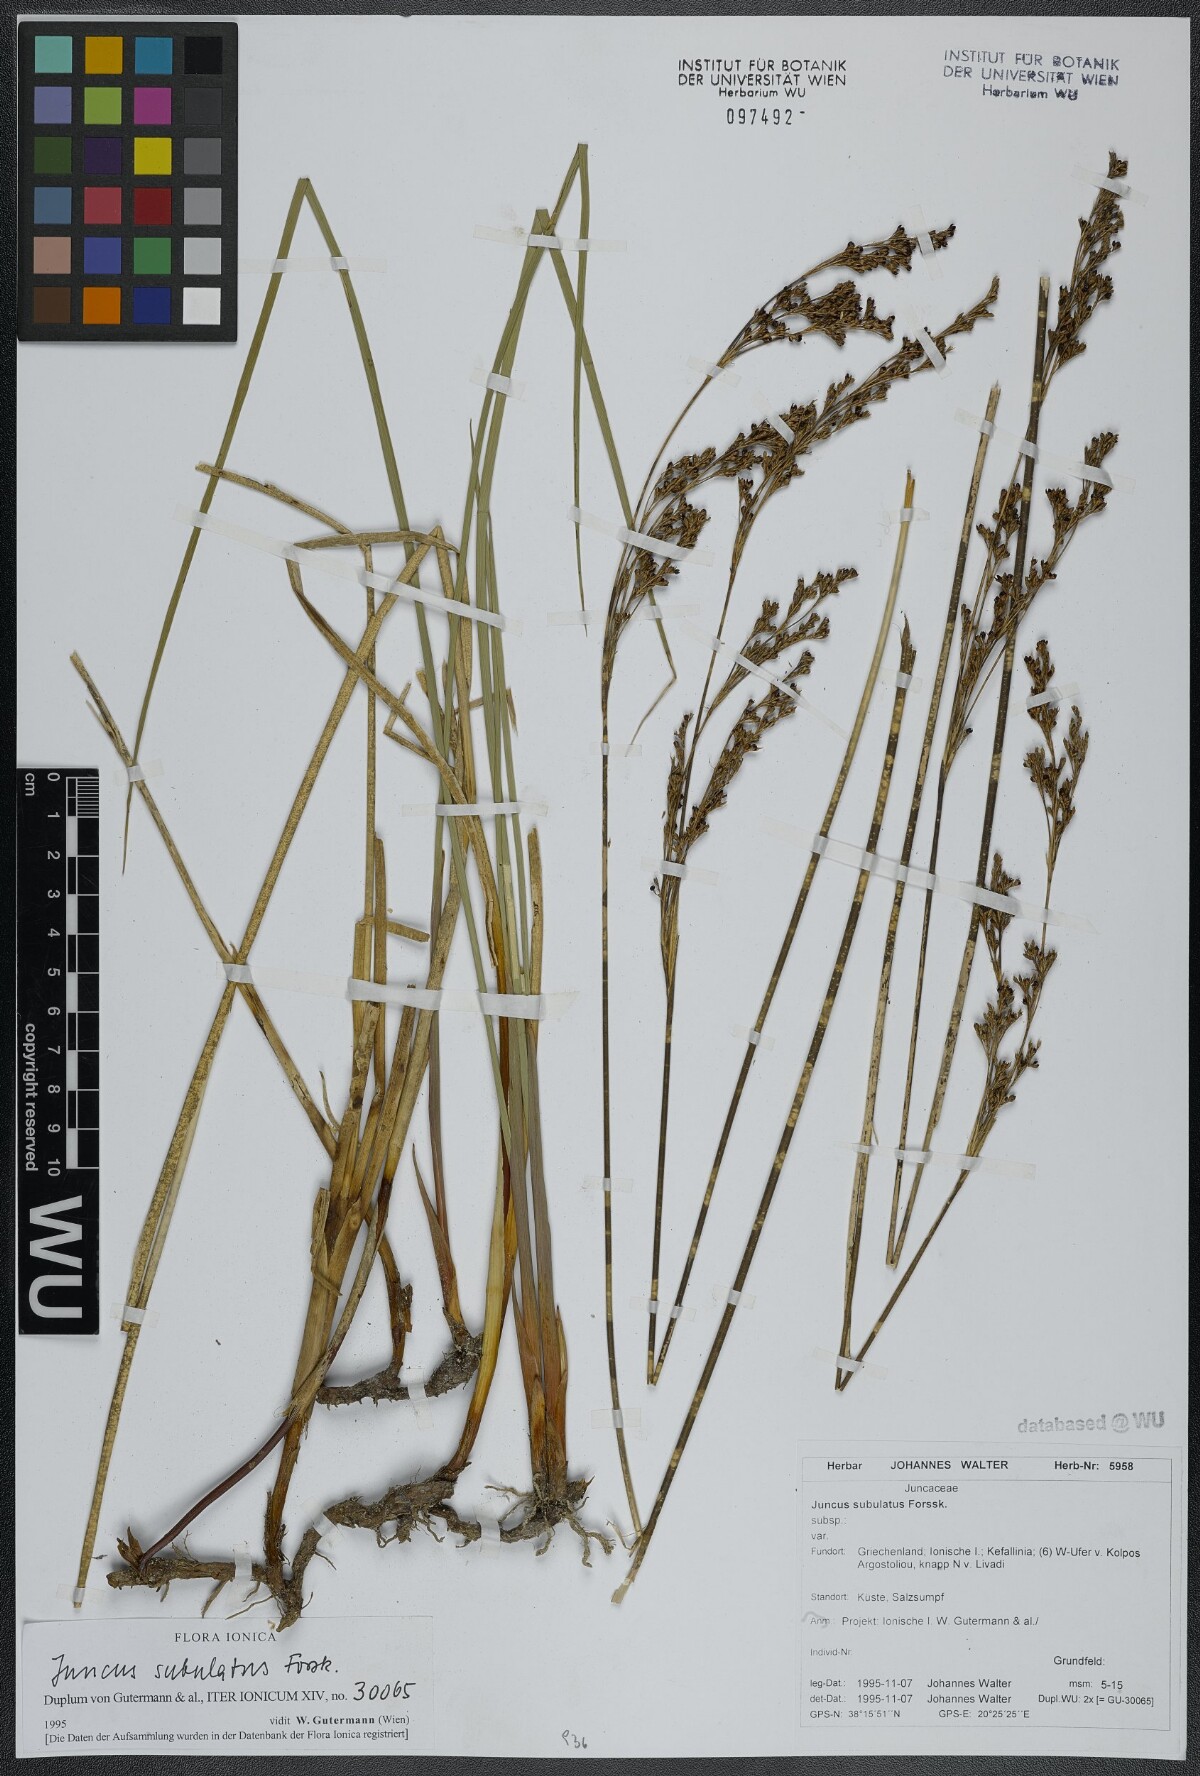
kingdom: Plantae
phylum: Tracheophyta
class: Liliopsida
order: Poales
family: Juncaceae
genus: Juncus
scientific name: Juncus subulatus
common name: Somerset rush
